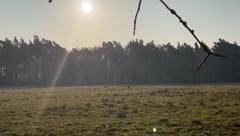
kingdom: Animalia
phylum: Chordata
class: Aves
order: Gruiformes
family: Gruidae
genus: Grus
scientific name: Grus grus
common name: Common crane
